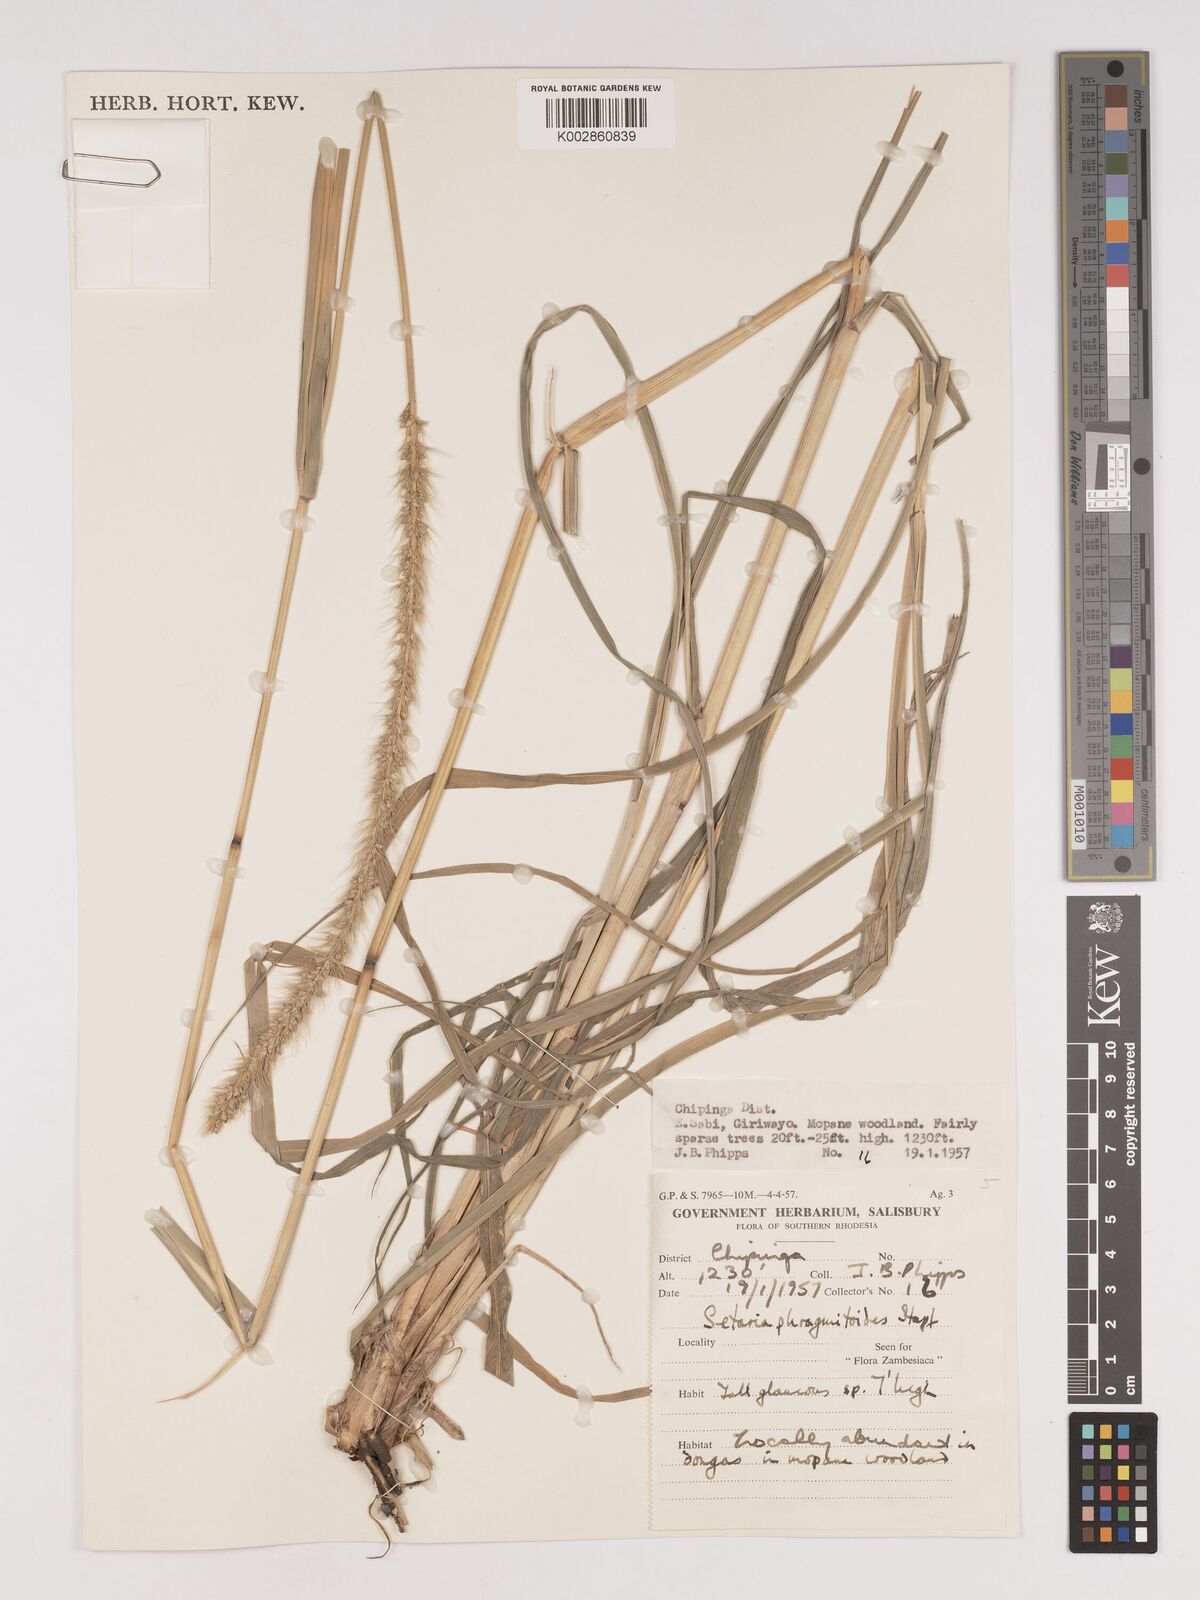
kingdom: Plantae
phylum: Tracheophyta
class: Liliopsida
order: Poales
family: Poaceae
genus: Setaria
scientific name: Setaria incrassata
